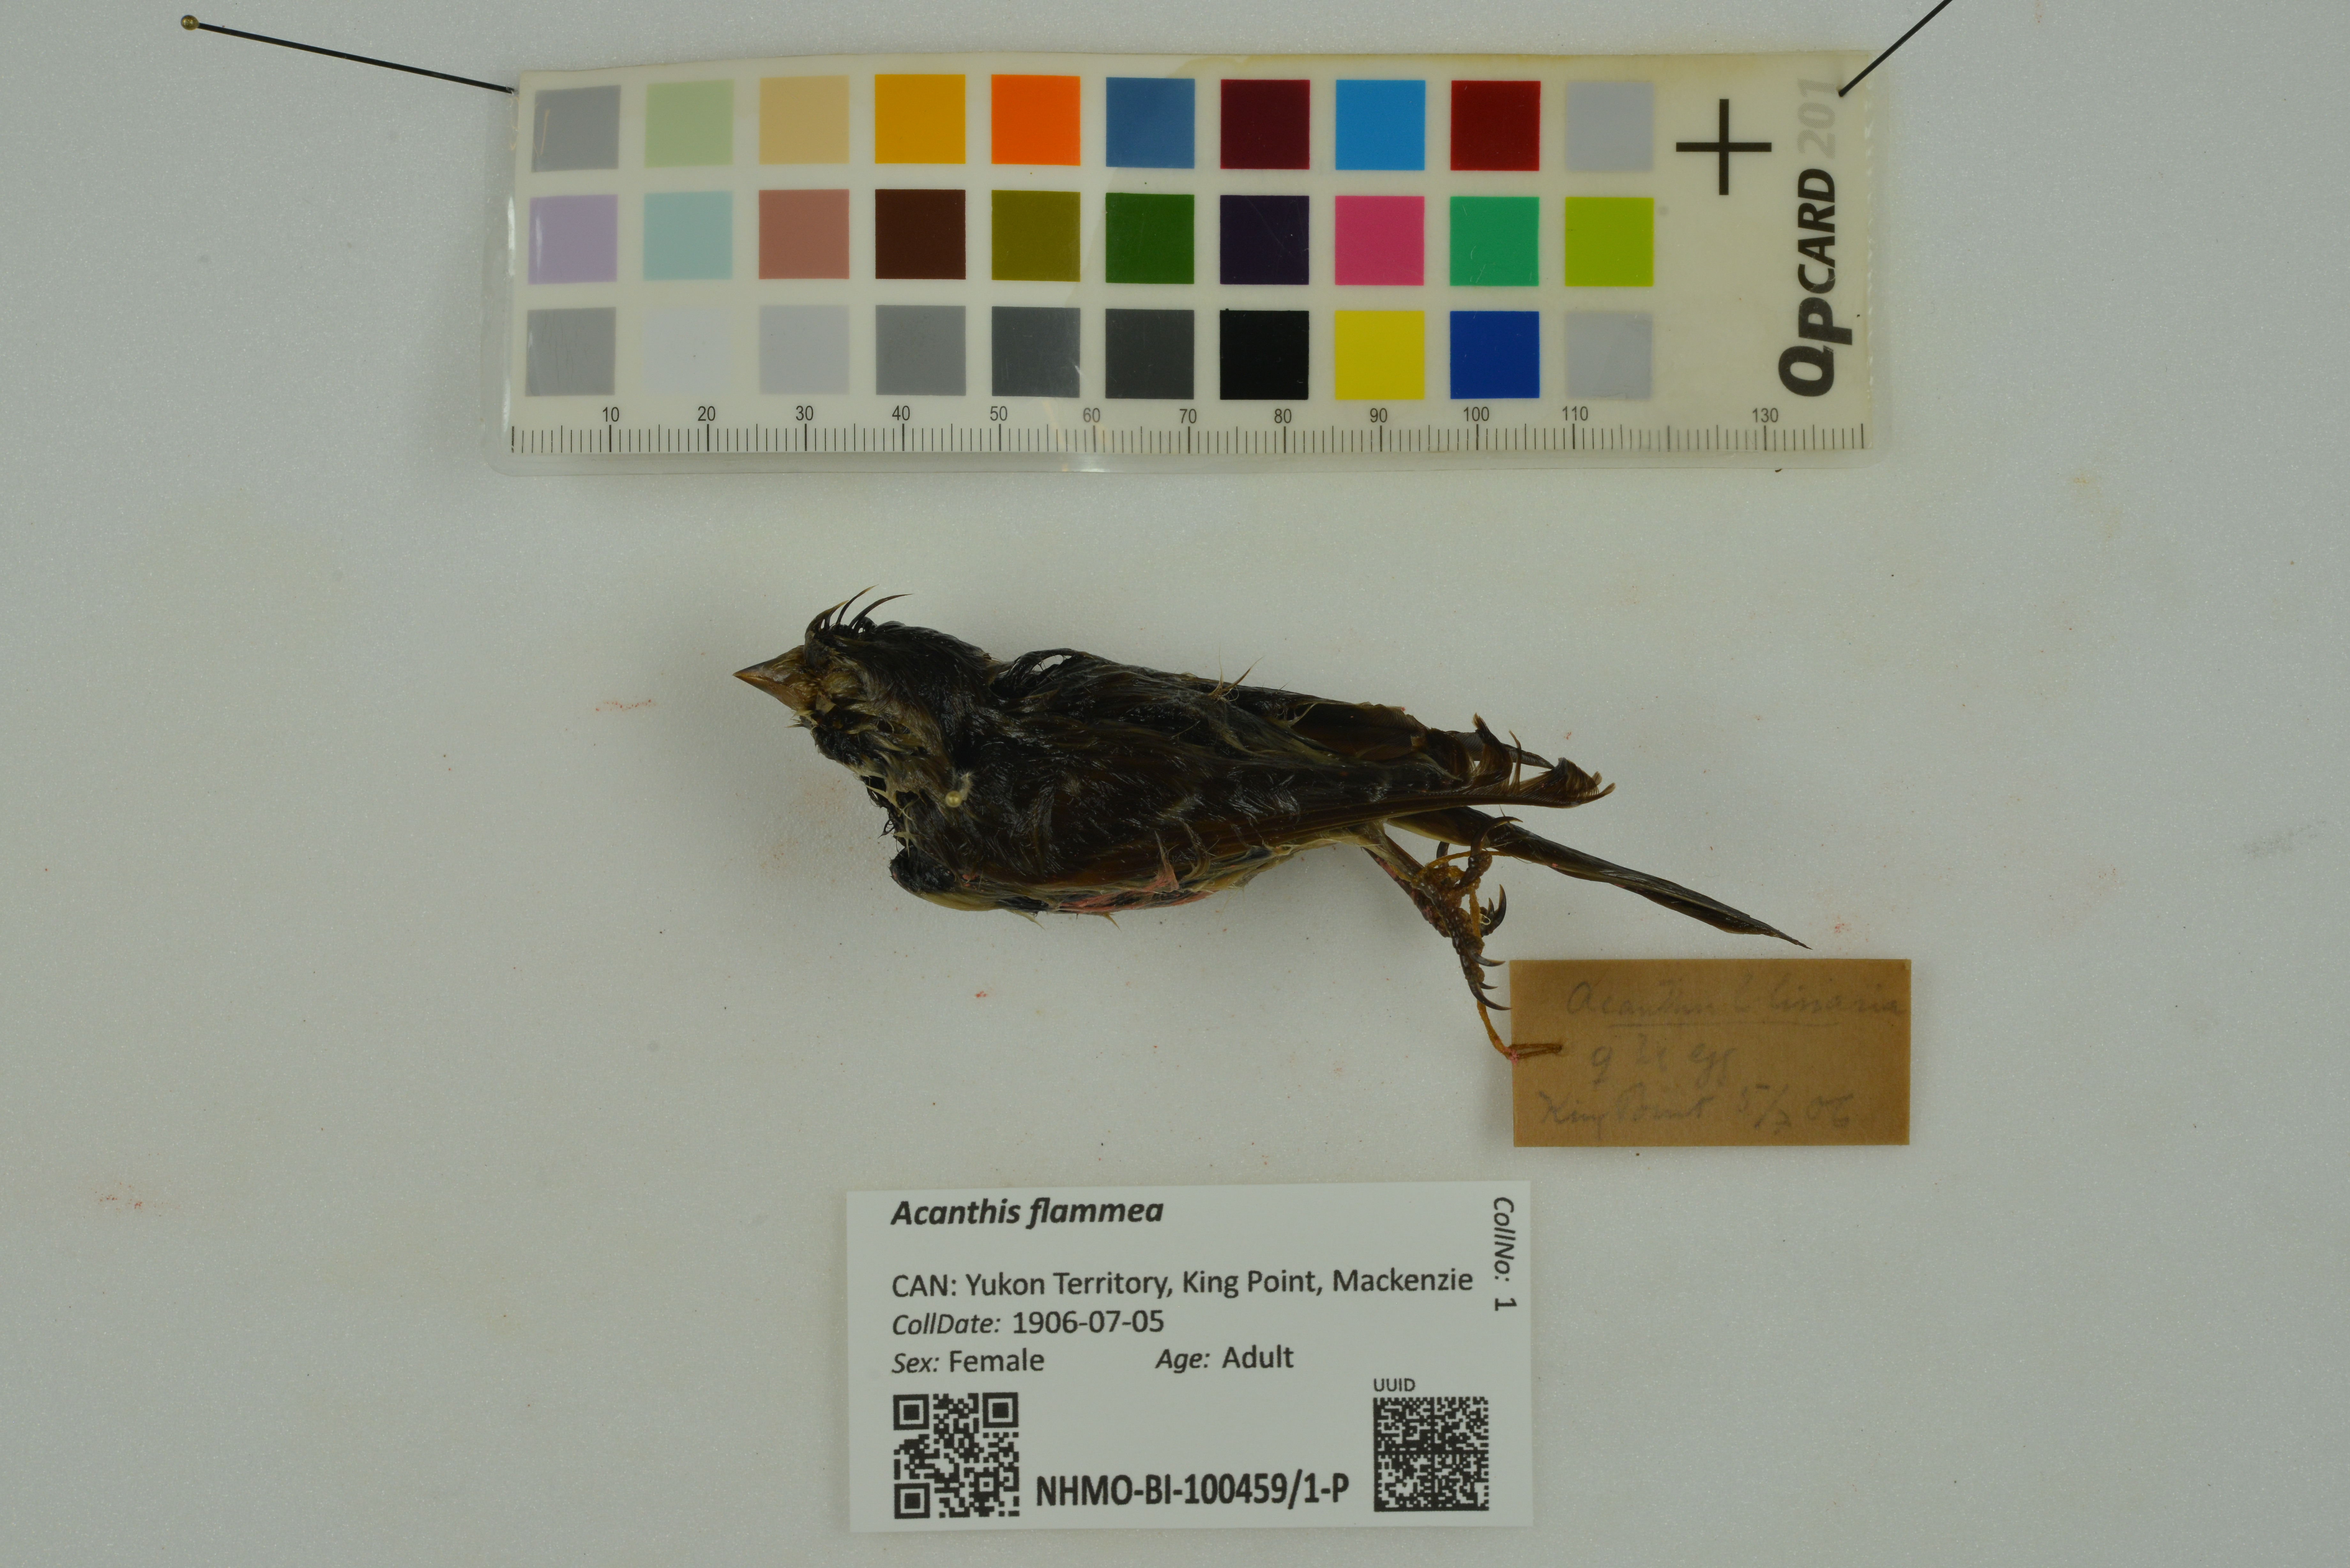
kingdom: Animalia
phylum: Chordata
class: Aves
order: Passeriformes
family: Fringillidae
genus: Acanthis
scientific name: Acanthis flammea
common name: Common redpoll
